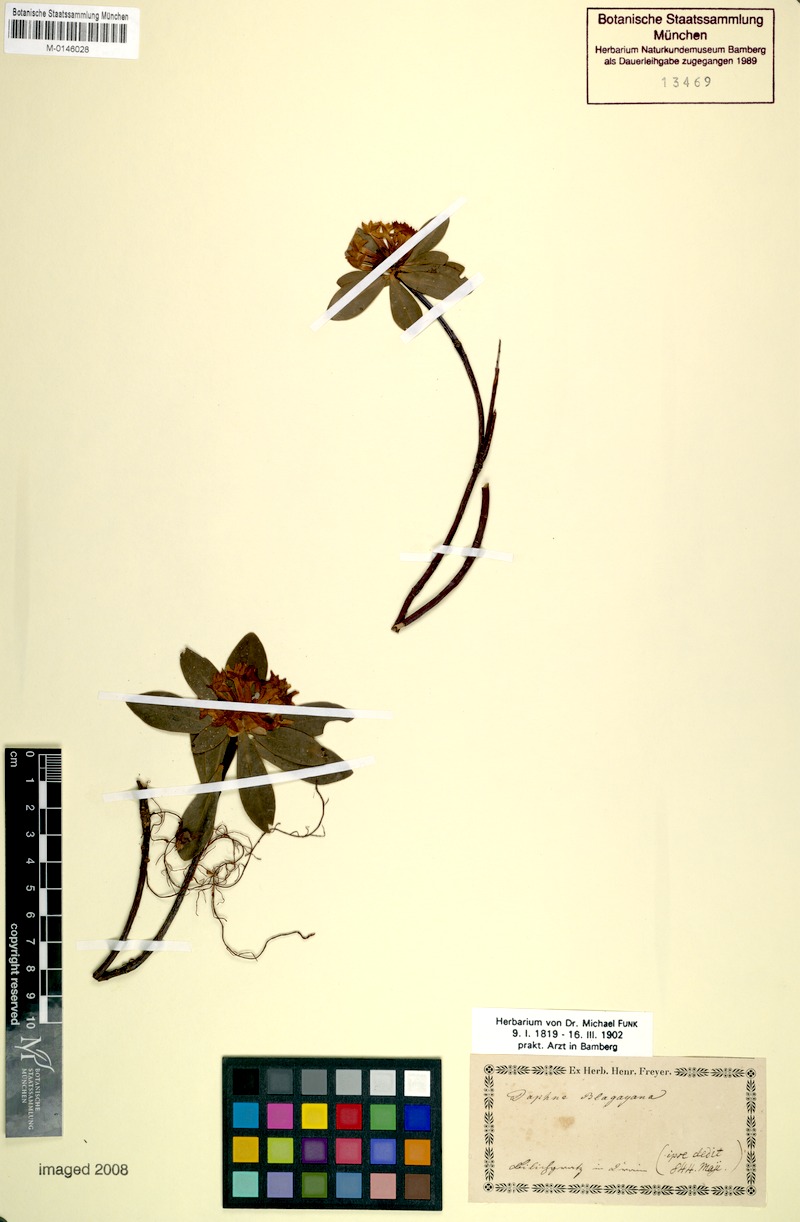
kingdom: Plantae
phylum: Tracheophyta
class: Magnoliopsida
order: Malvales
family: Thymelaeaceae
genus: Daphne
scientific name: Daphne blagayana
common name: Balkan daphne
